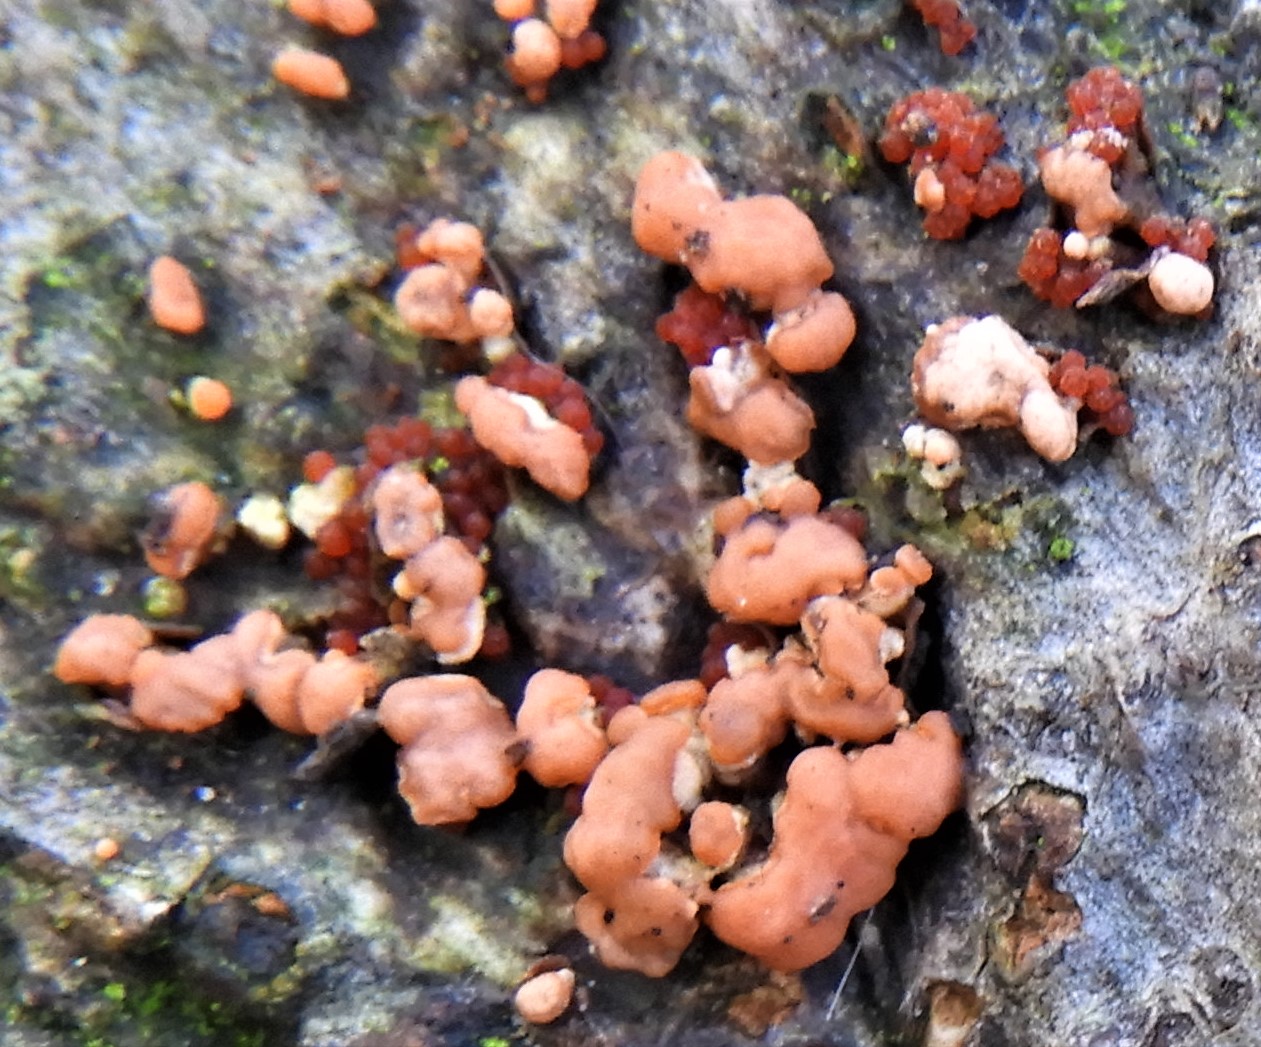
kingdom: Fungi
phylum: Ascomycota
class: Sordariomycetes
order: Hypocreales
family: Nectriaceae
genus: Neonectria
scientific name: Neonectria coccinea
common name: bøgebark-cinnobersvamp
